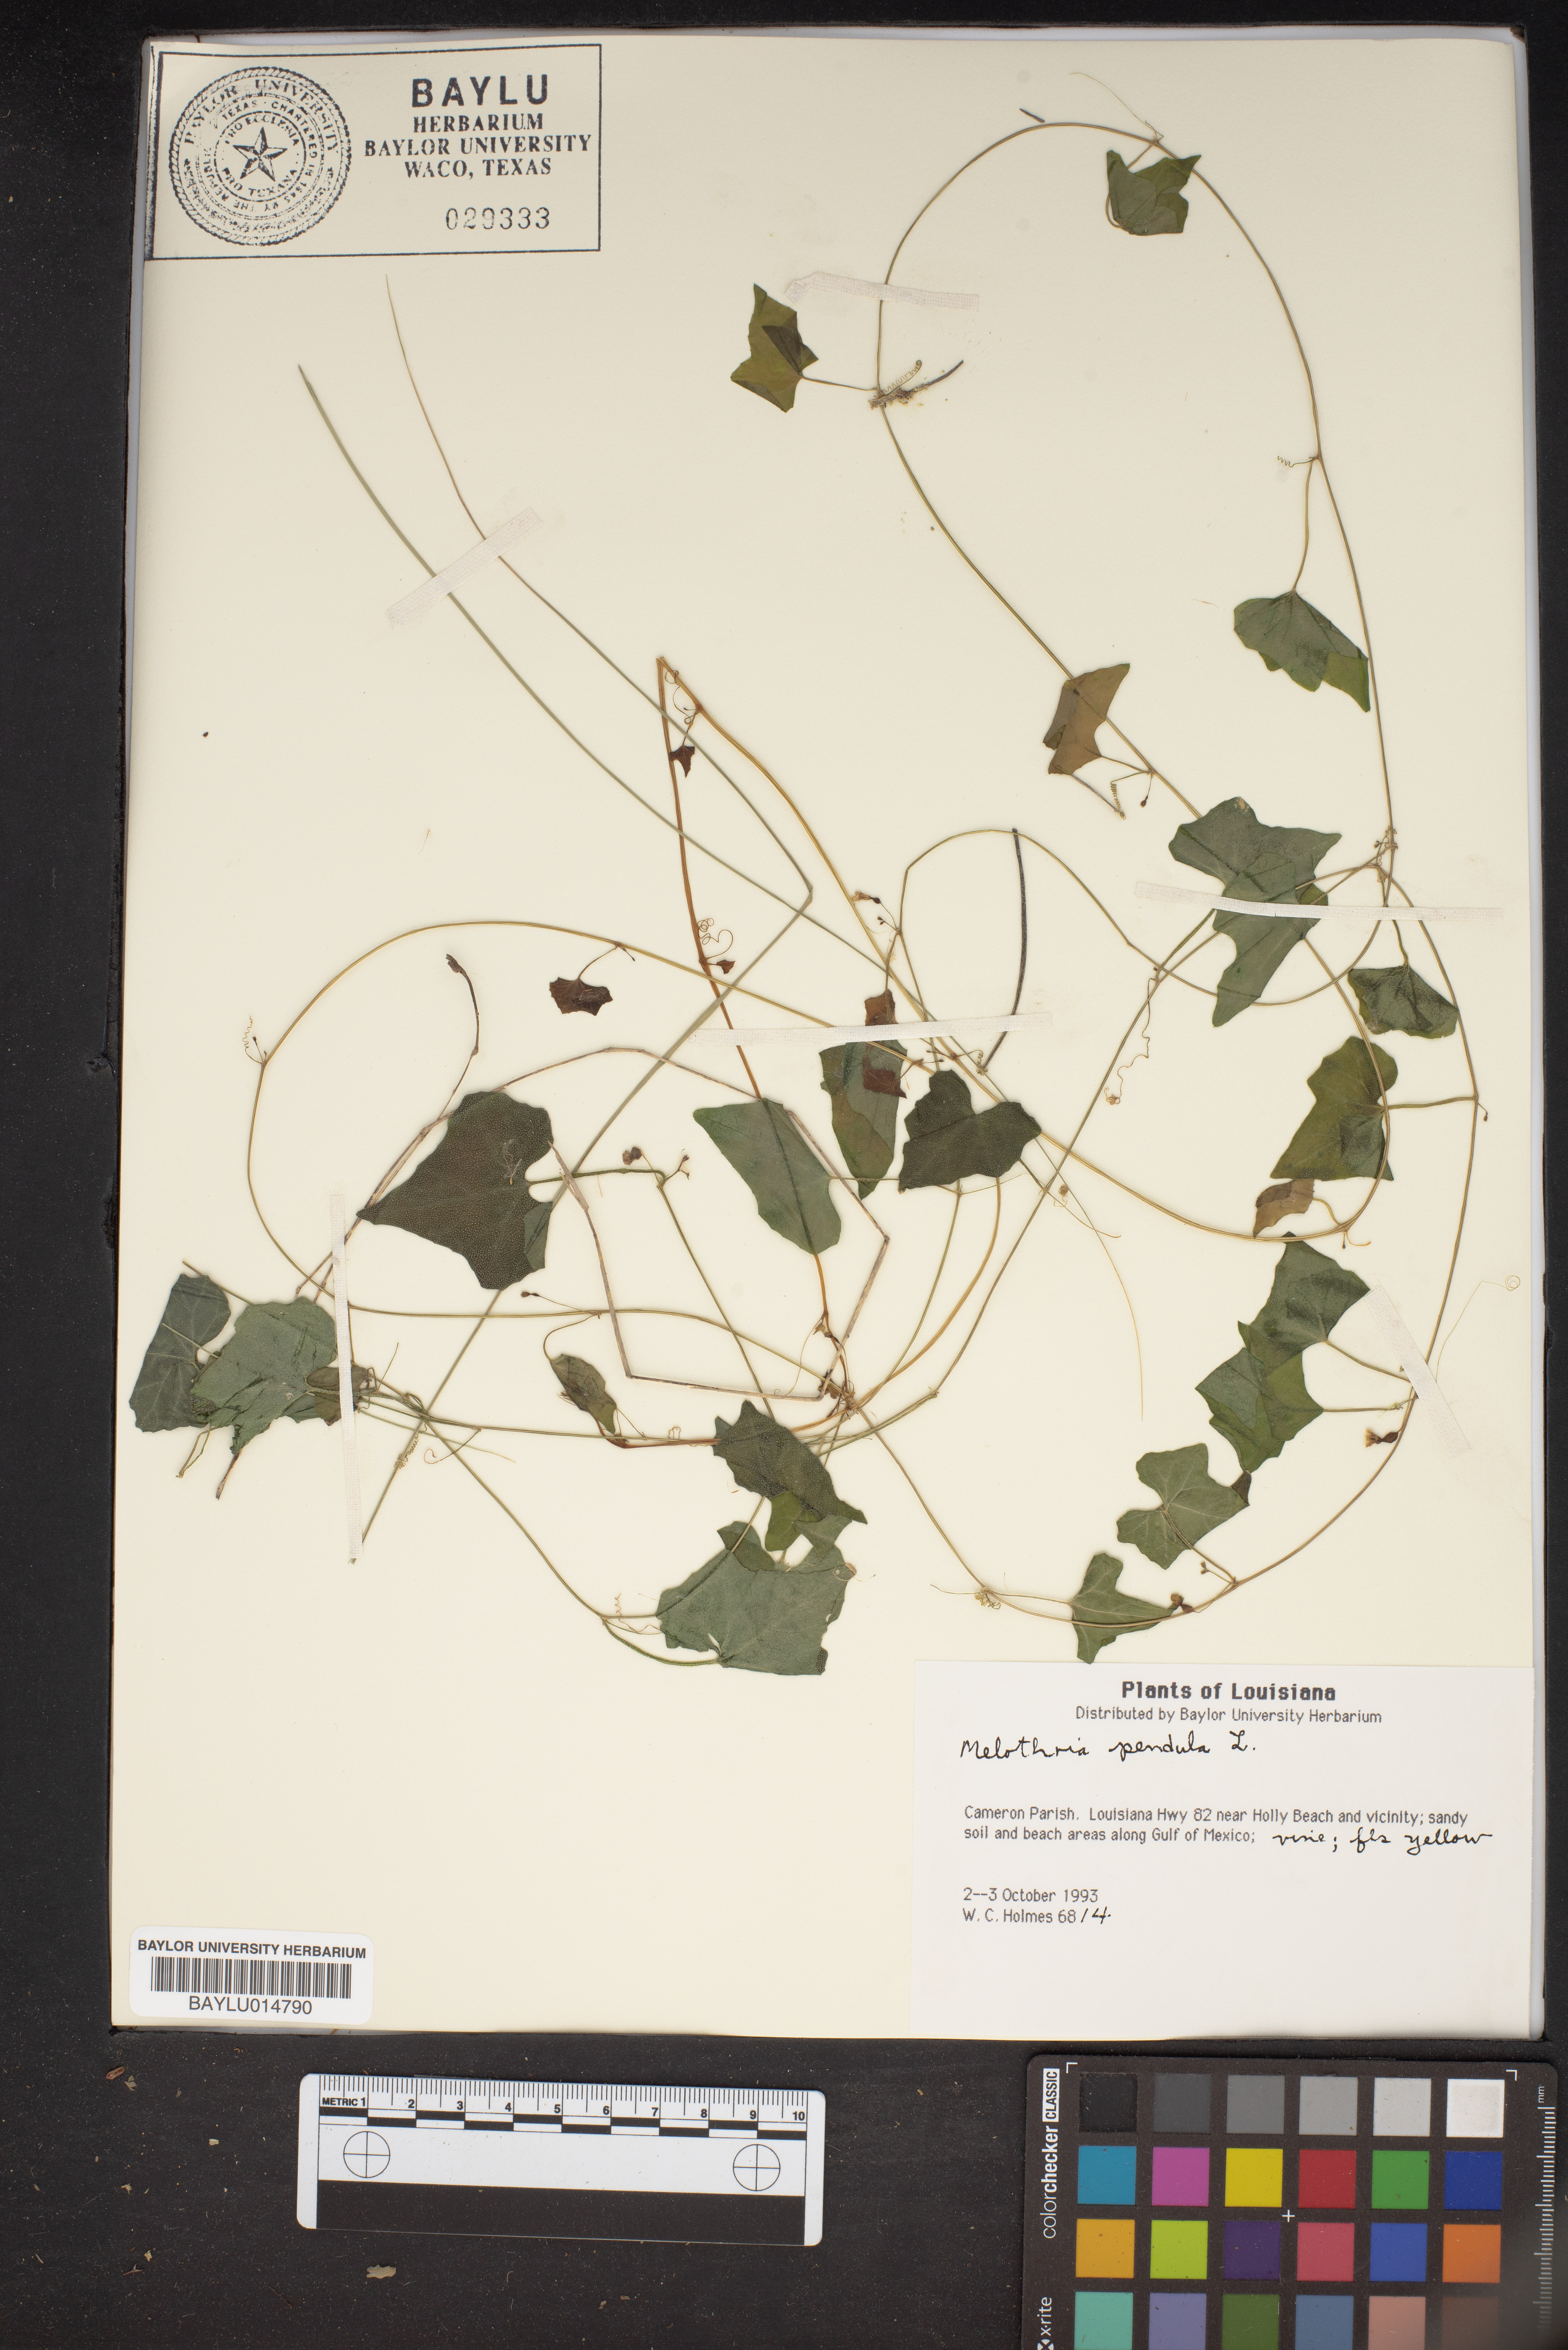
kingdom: Plantae
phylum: Tracheophyta
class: Magnoliopsida
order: Cucurbitales
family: Cucurbitaceae
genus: Melothria
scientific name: Melothria pendula
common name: Creeping-cucumber
